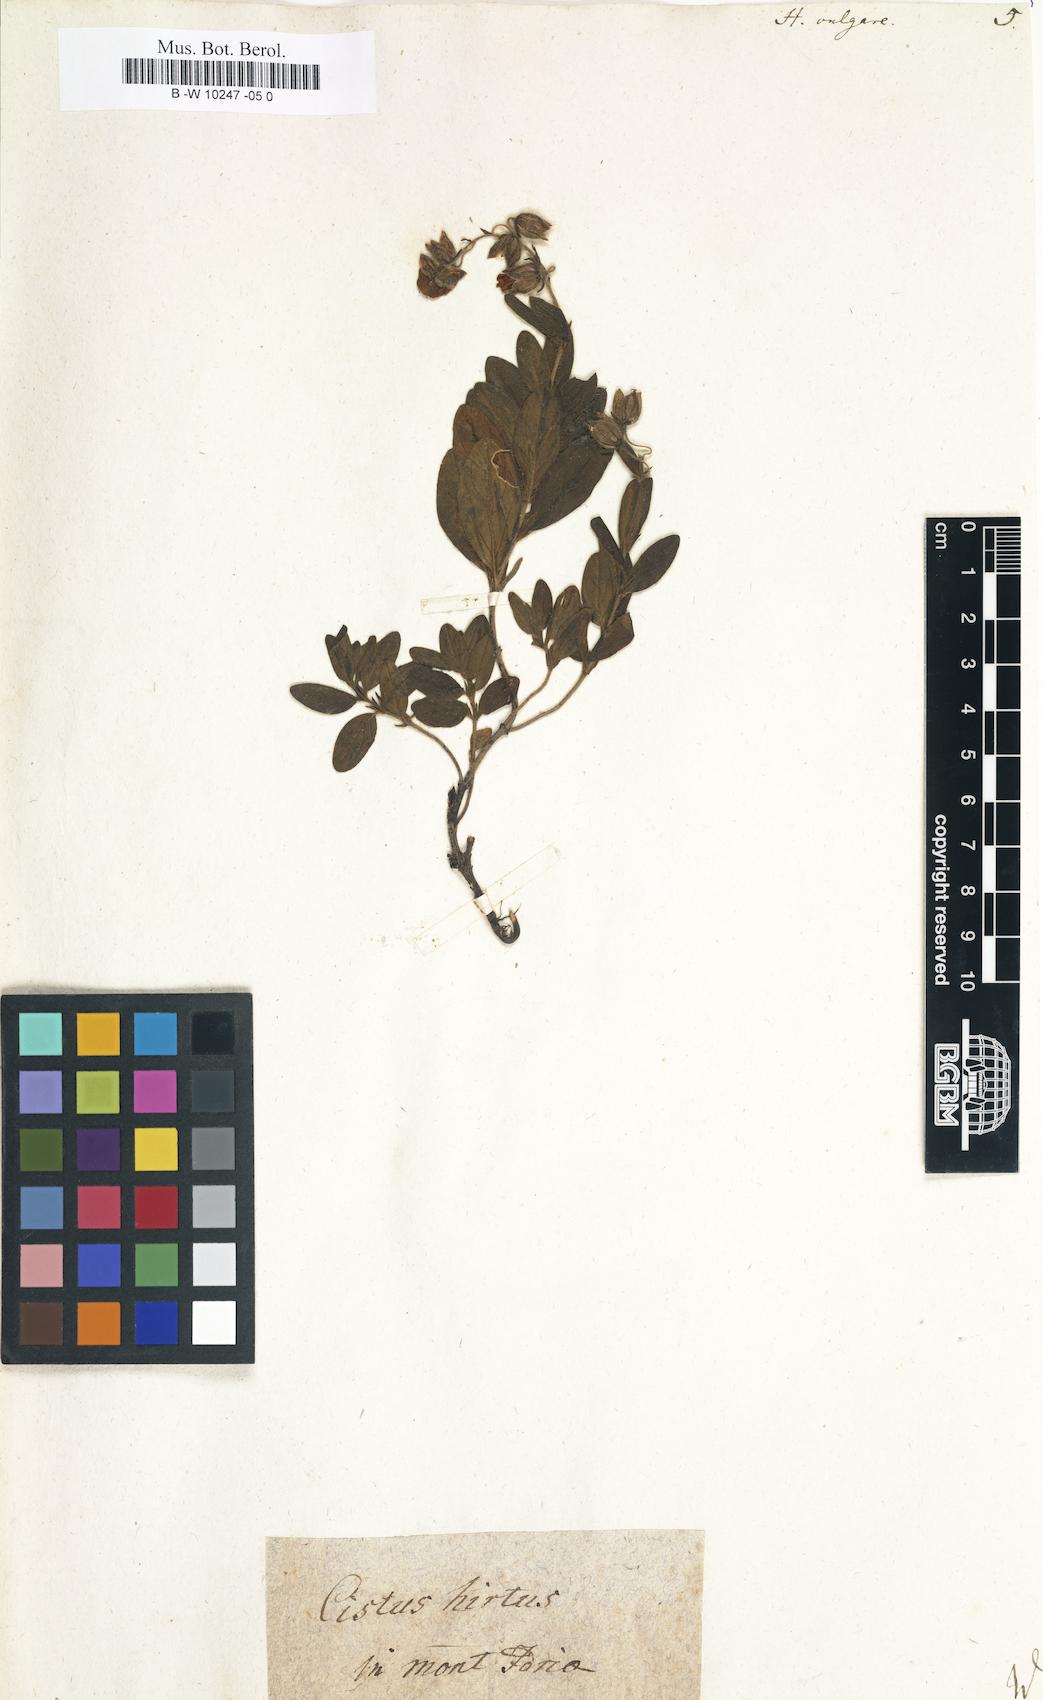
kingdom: Plantae
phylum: Tracheophyta
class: Magnoliopsida
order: Malvales
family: Cistaceae
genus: Helianthemum
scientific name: Helianthemum nummularium
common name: Common rock-rose
